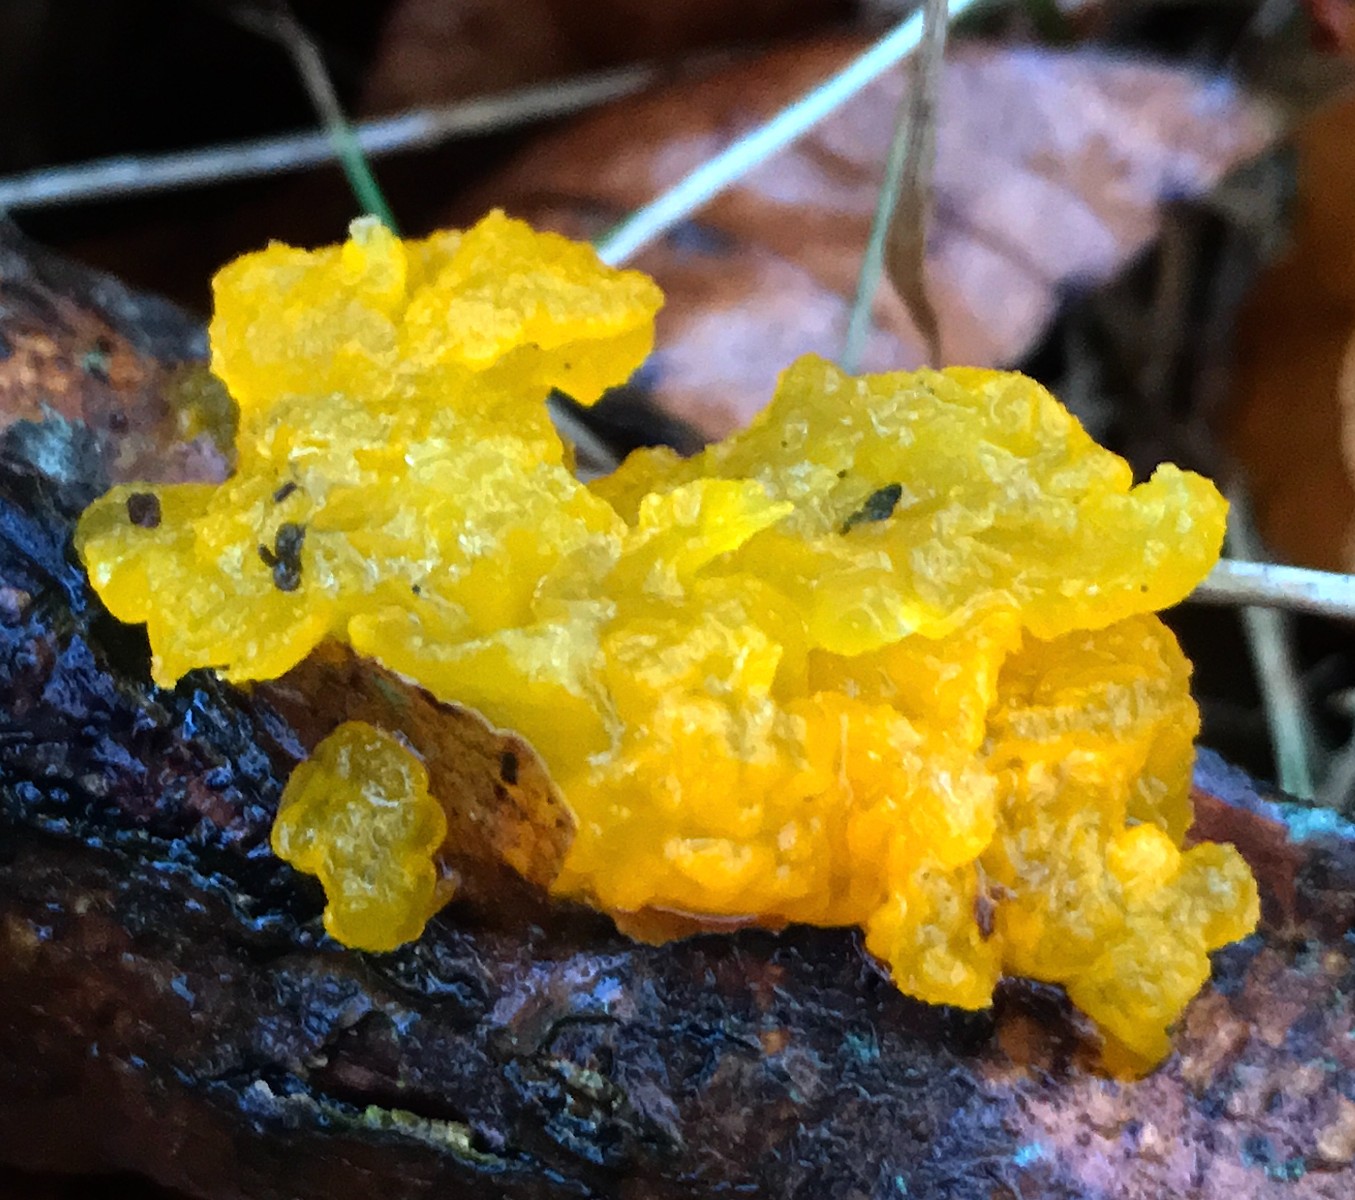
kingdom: Fungi
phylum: Basidiomycota
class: Tremellomycetes
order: Tremellales
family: Tremellaceae
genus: Tremella
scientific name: Tremella mesenterica
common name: gul bævresvamp
